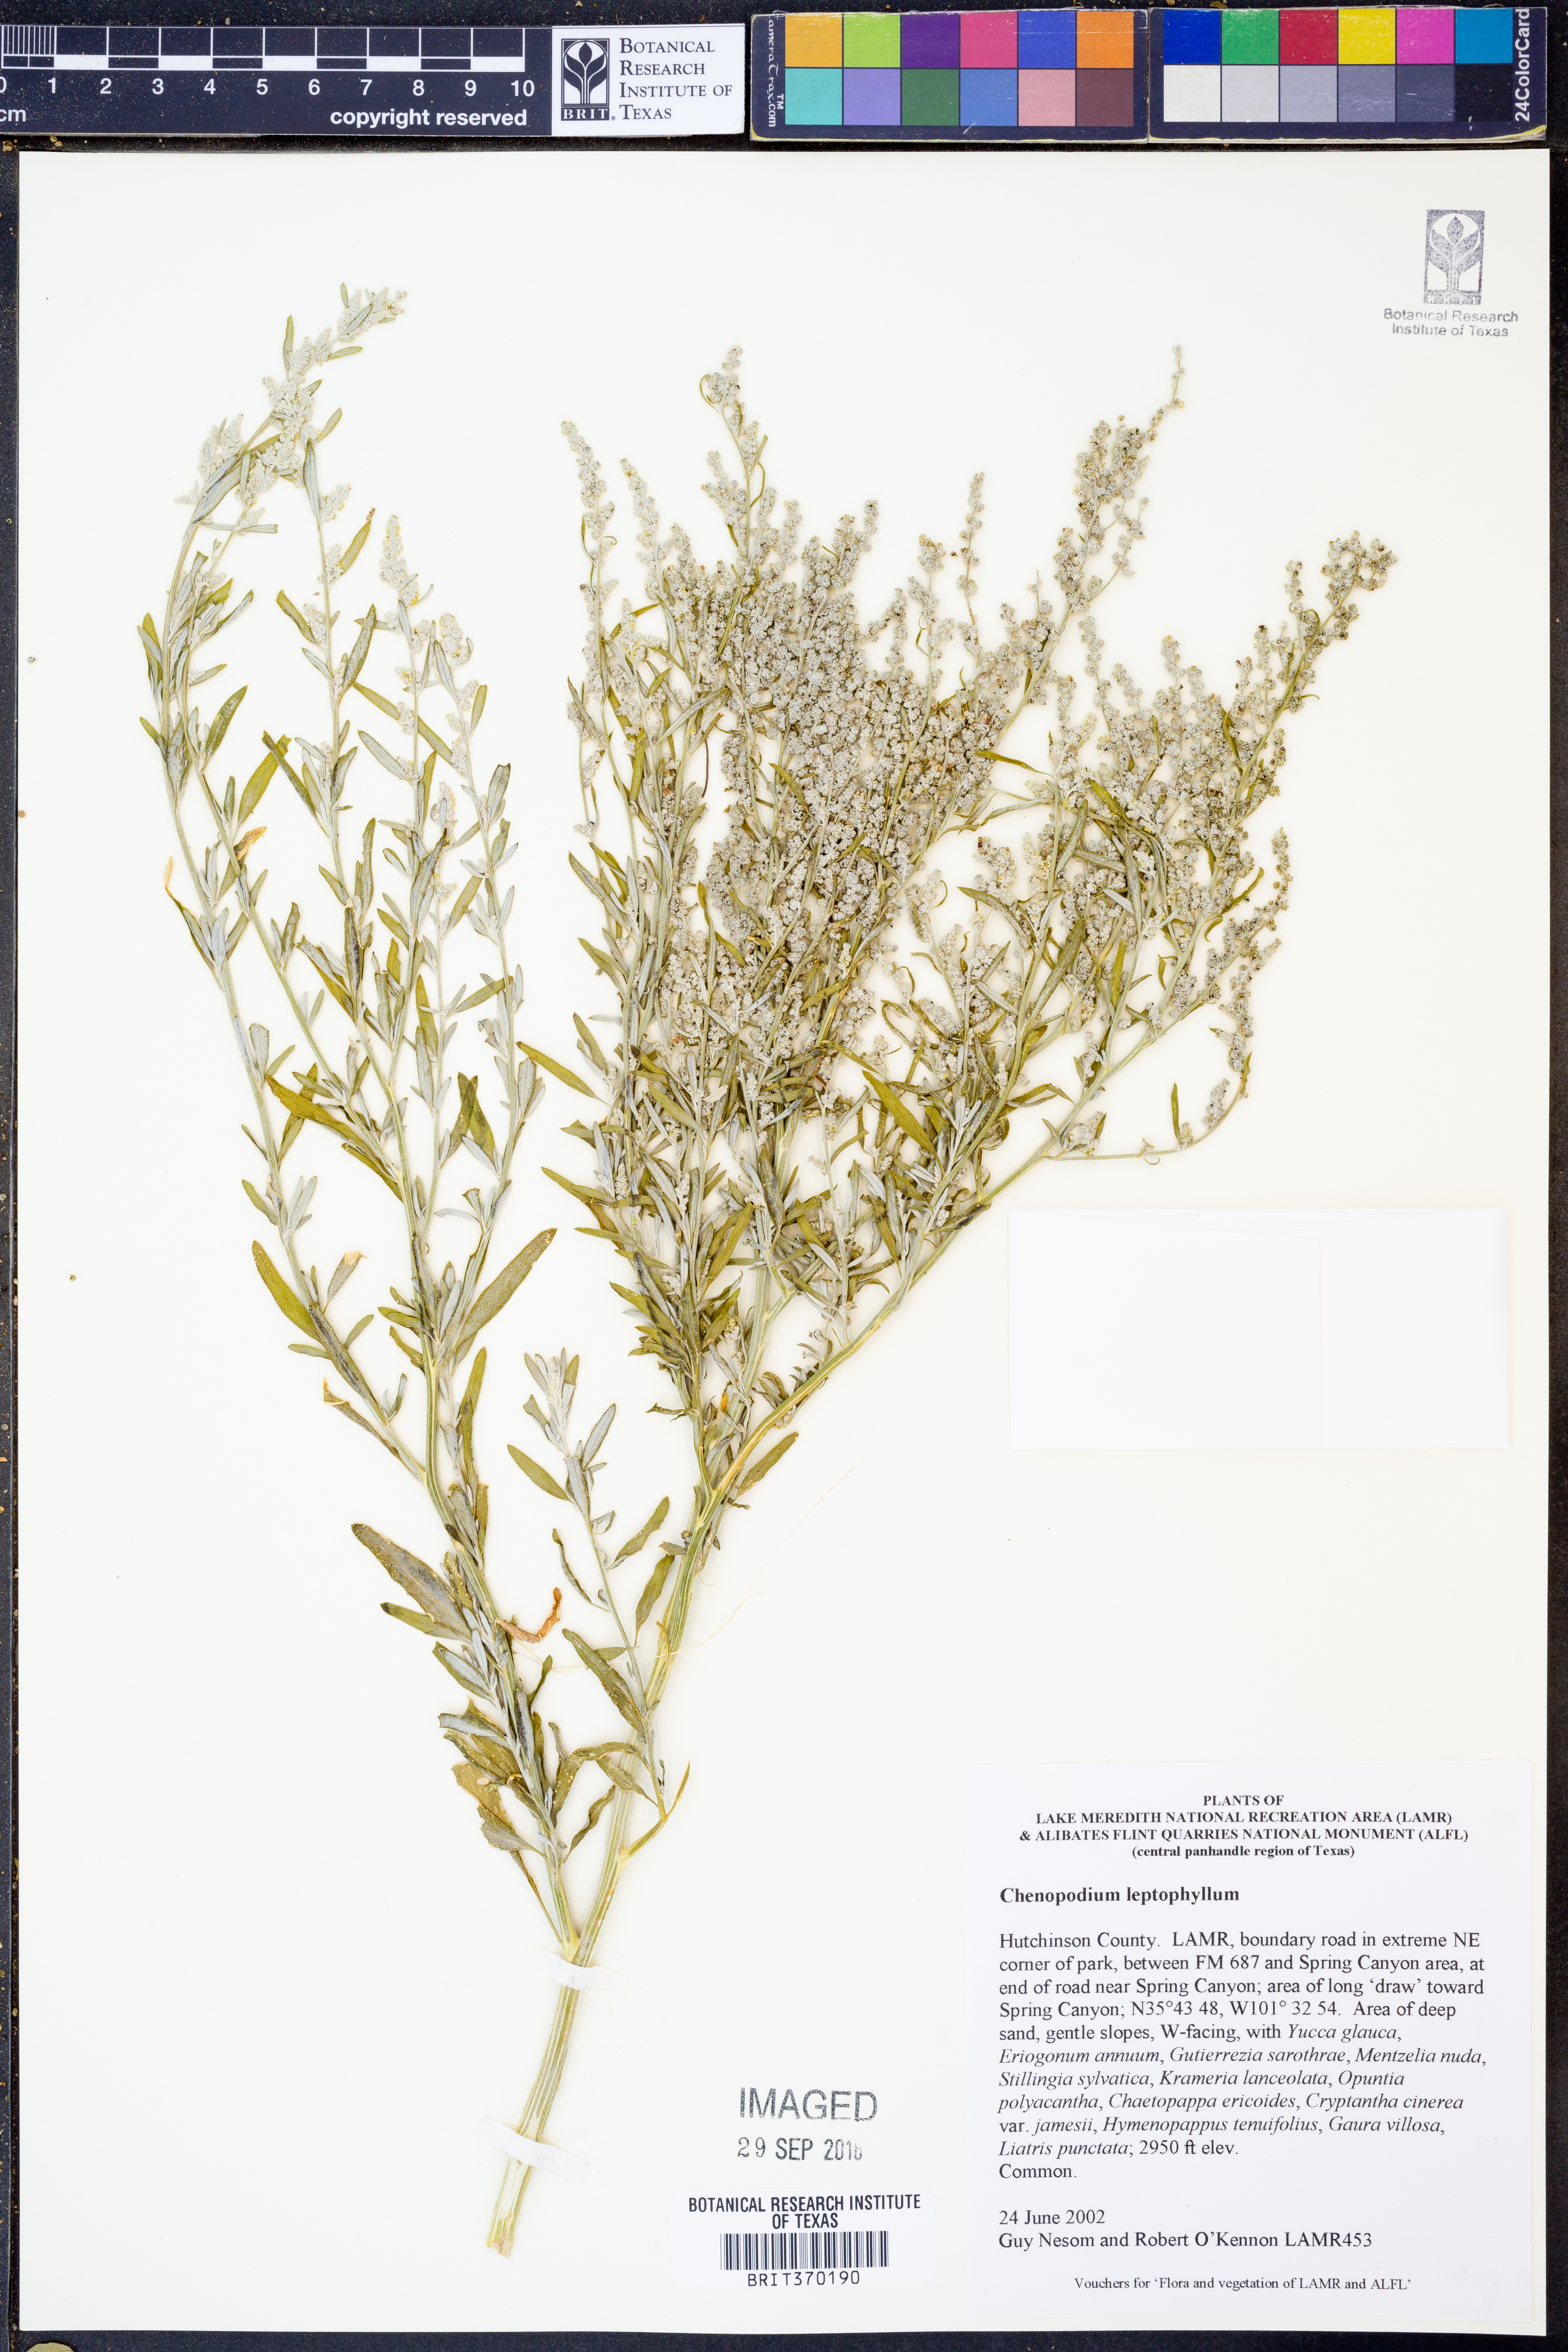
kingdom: Plantae
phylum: Tracheophyta
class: Magnoliopsida
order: Caryophyllales
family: Amaranthaceae
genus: Chenopodium
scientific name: Chenopodium leptophyllum
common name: Narrow-leaf goosefoot
